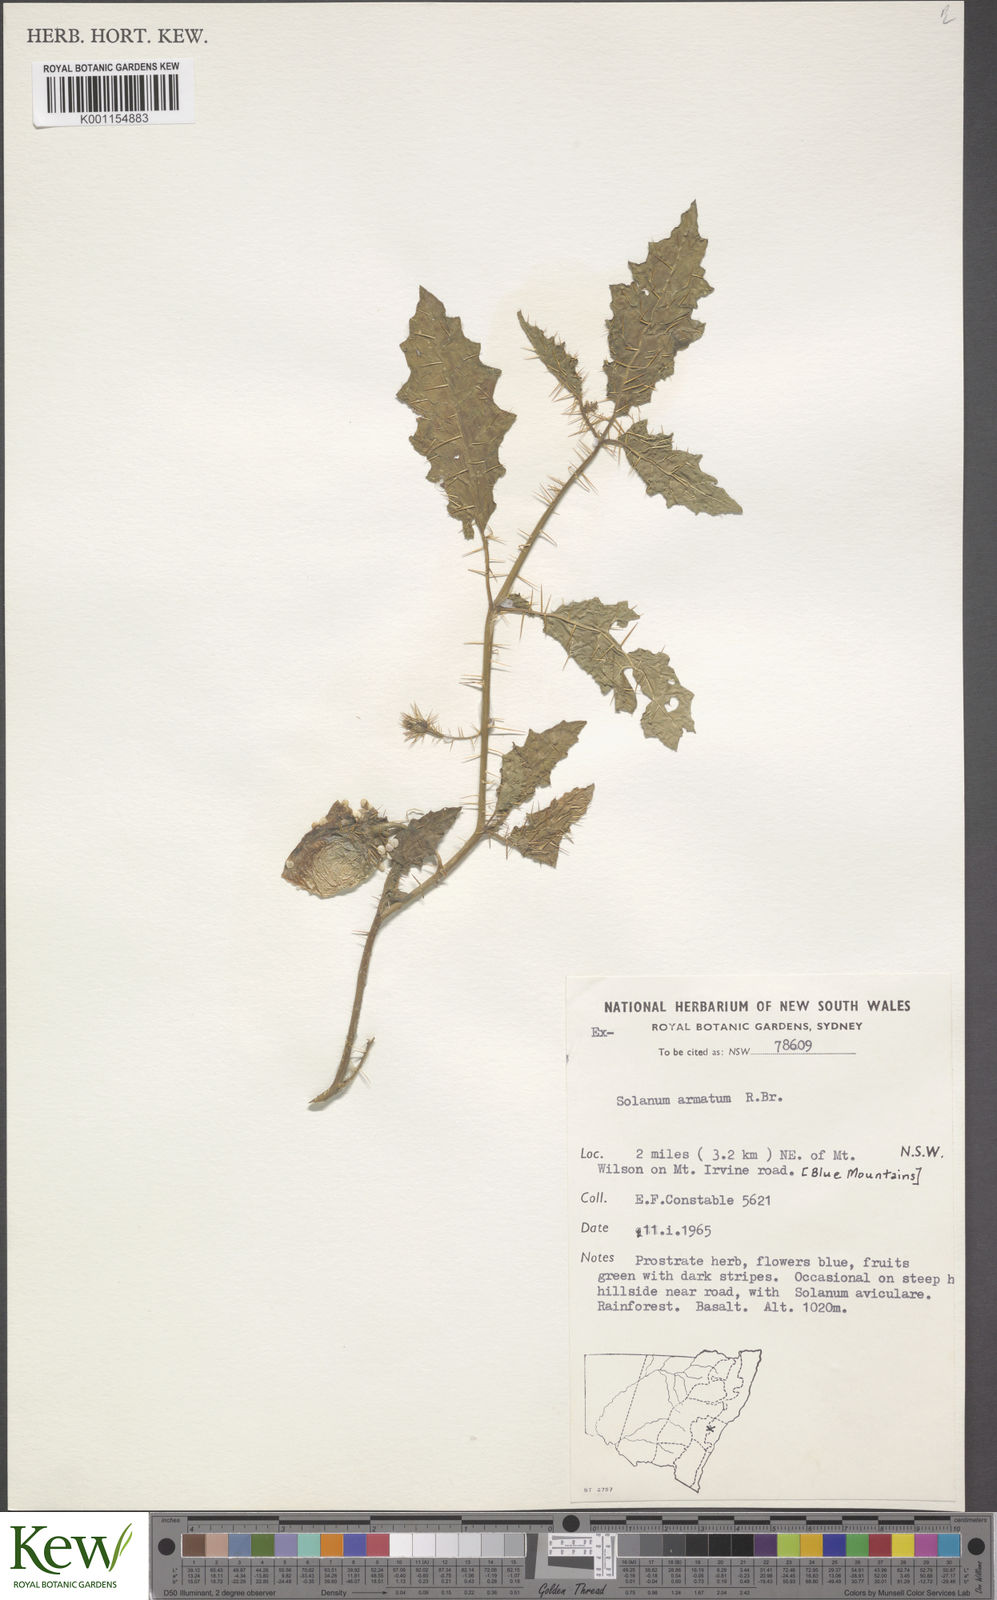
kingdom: Plantae
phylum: Tracheophyta
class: Magnoliopsida
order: Solanales
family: Solanaceae
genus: Solanum
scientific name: Solanum prinophyllum
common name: Forest nightshade
